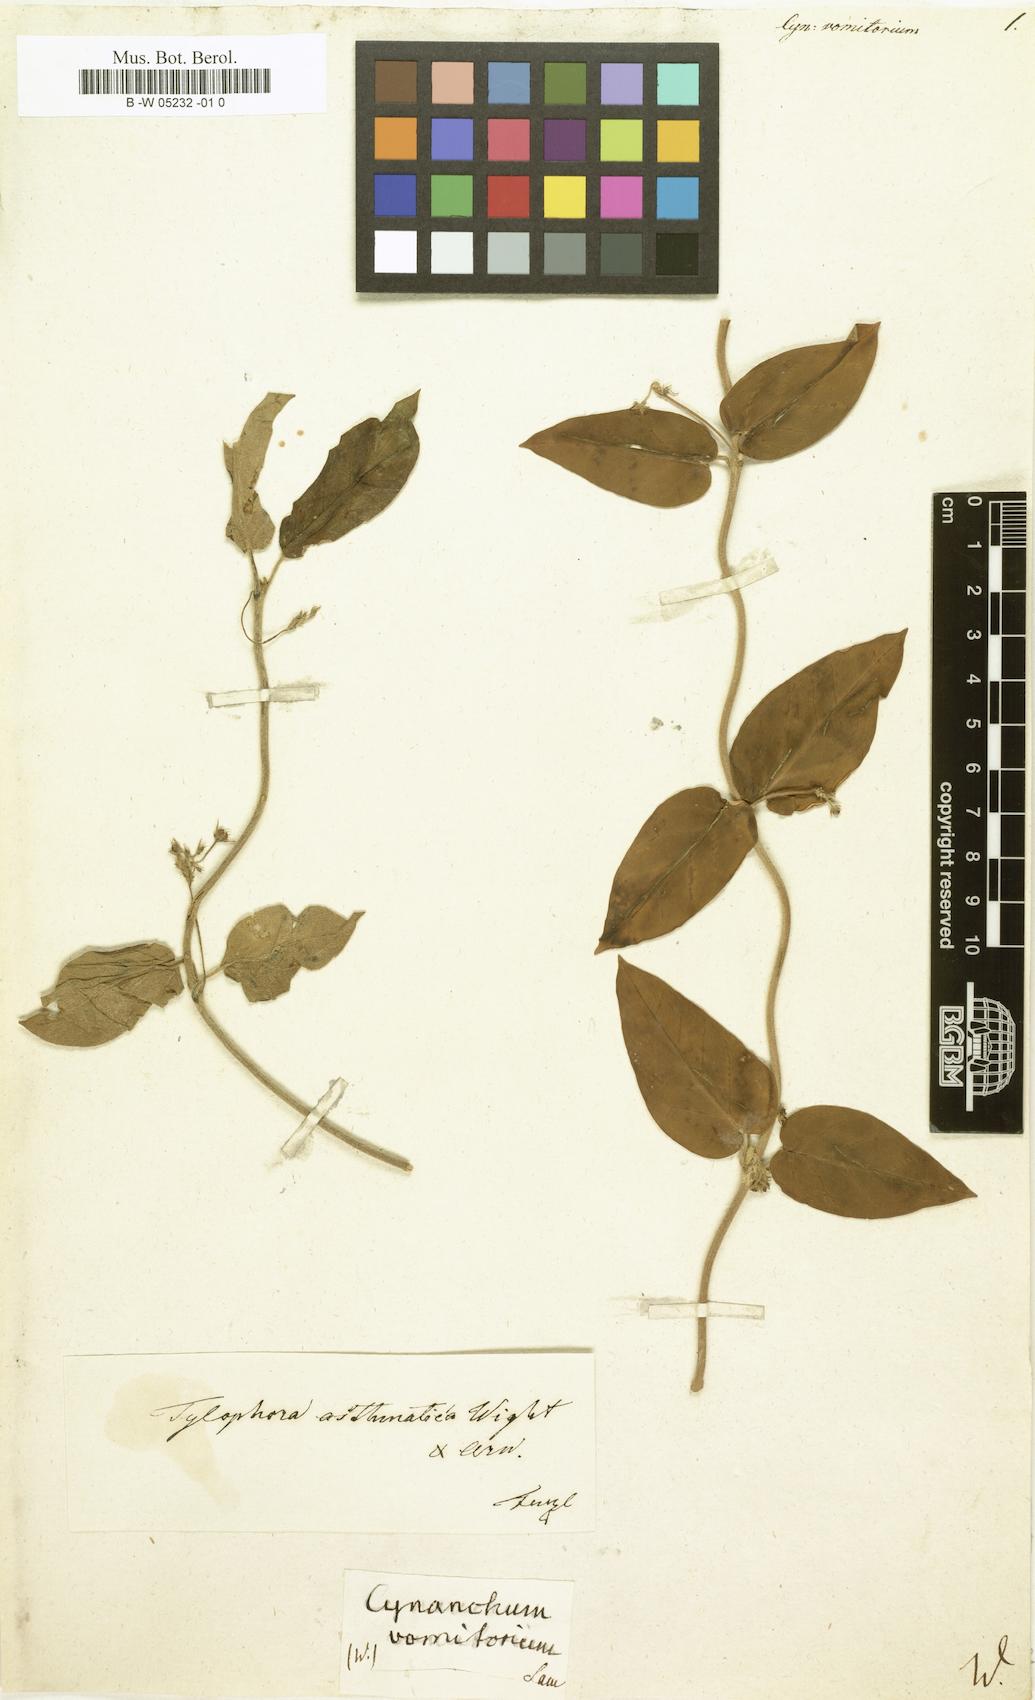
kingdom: Plantae
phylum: Tracheophyta
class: Magnoliopsida
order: Gentianales
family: Apocynaceae
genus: Vincetoxicum
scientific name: Vincetoxicum indicum
